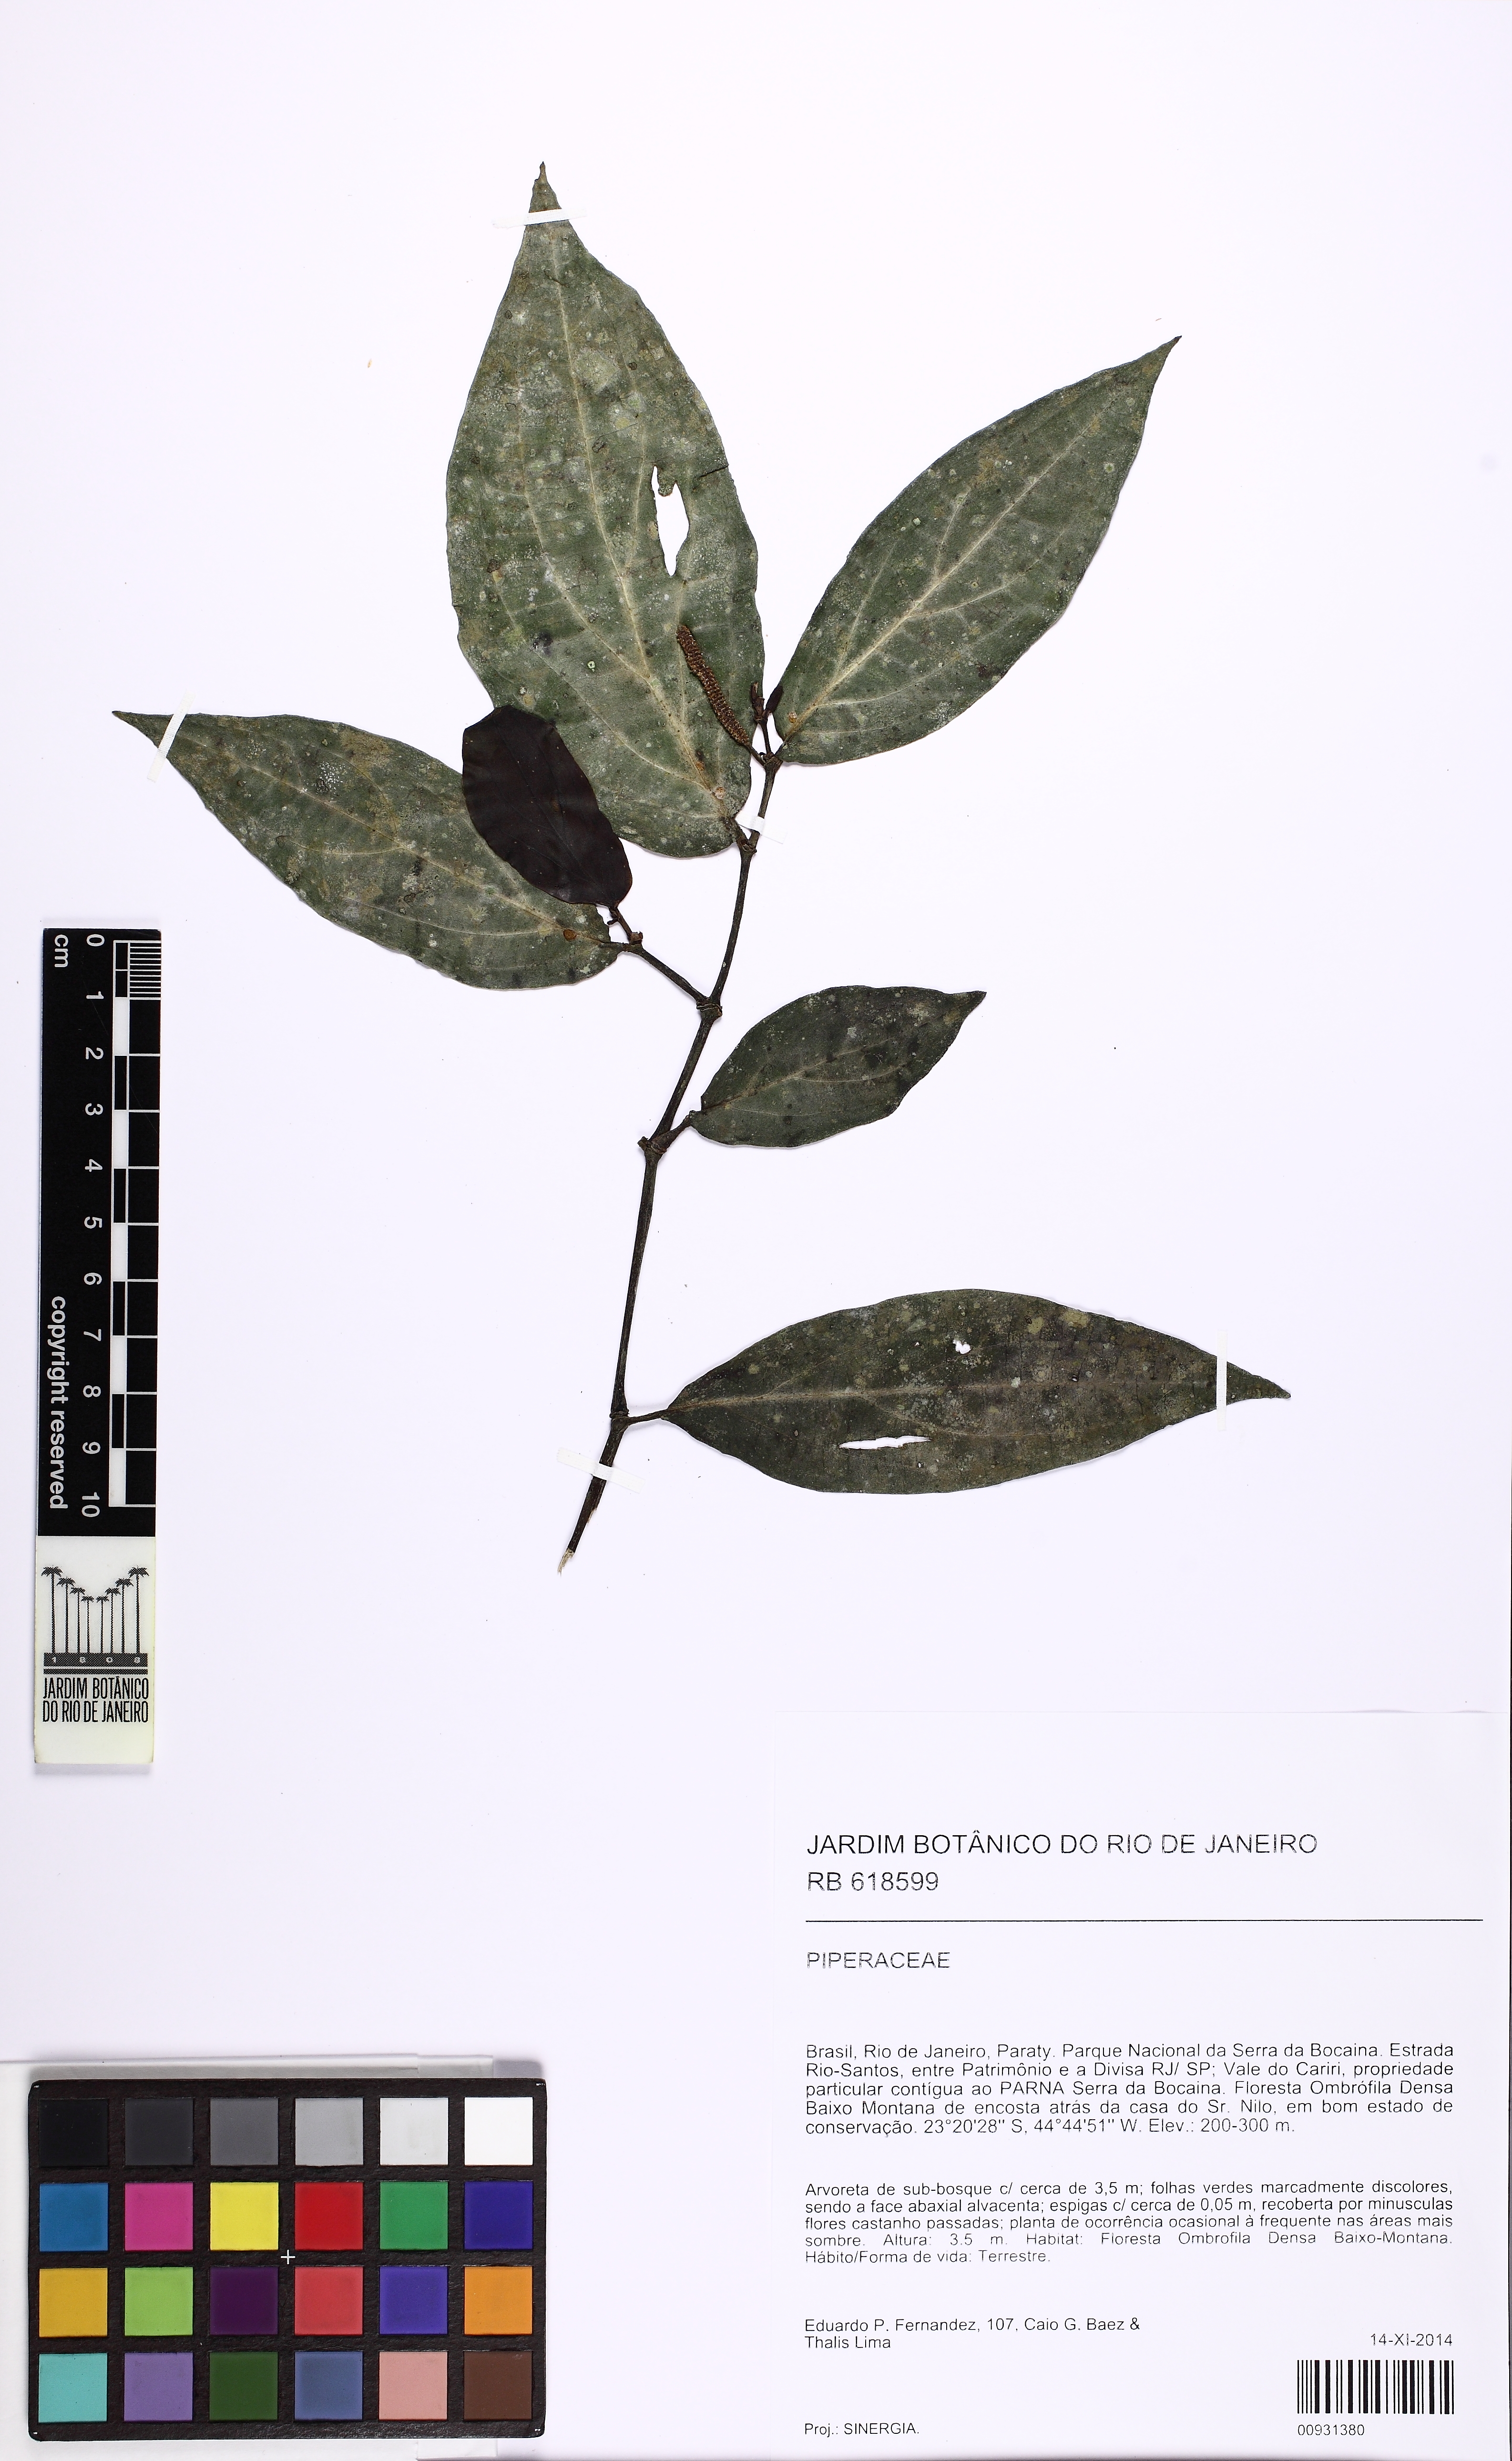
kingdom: Plantae
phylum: Tracheophyta
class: Magnoliopsida
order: Piperales
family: Piperaceae
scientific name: Piperaceae
